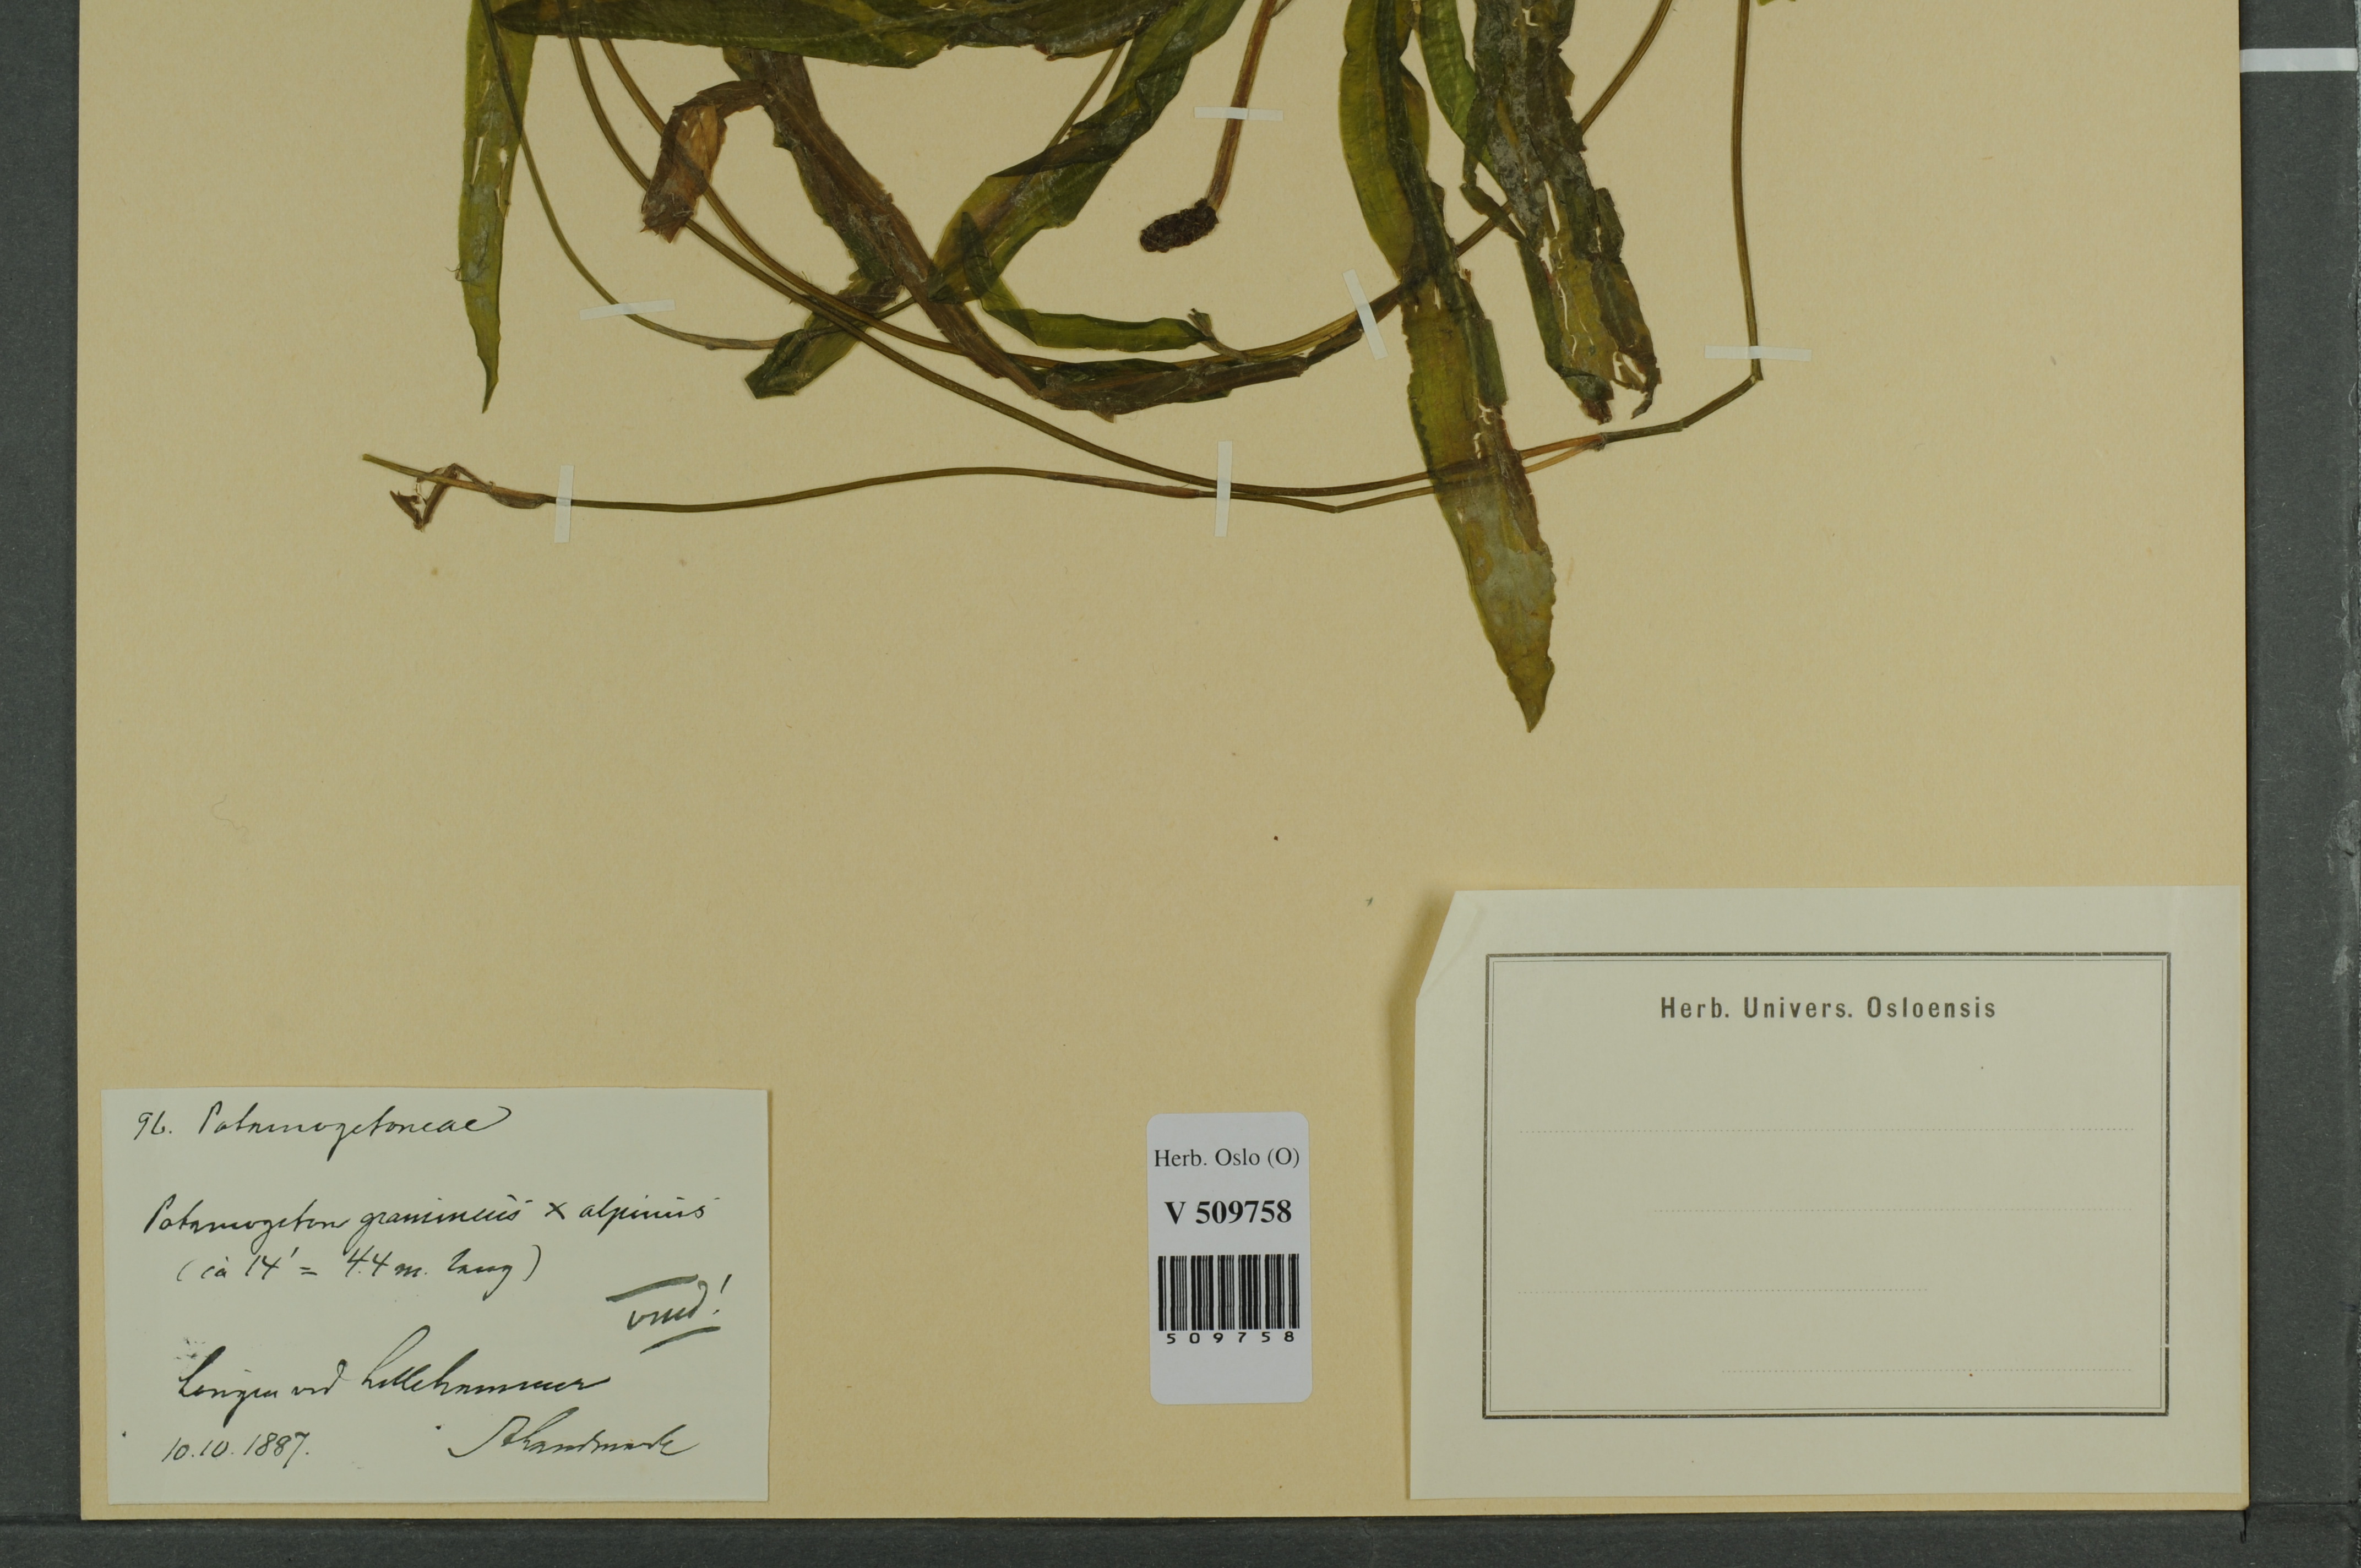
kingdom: Plantae
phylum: Tracheophyta
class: Liliopsida
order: Alismatales
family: Potamogetonaceae
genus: Potamogeton
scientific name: Potamogeton gramineus
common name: Various-leaved pondweed
